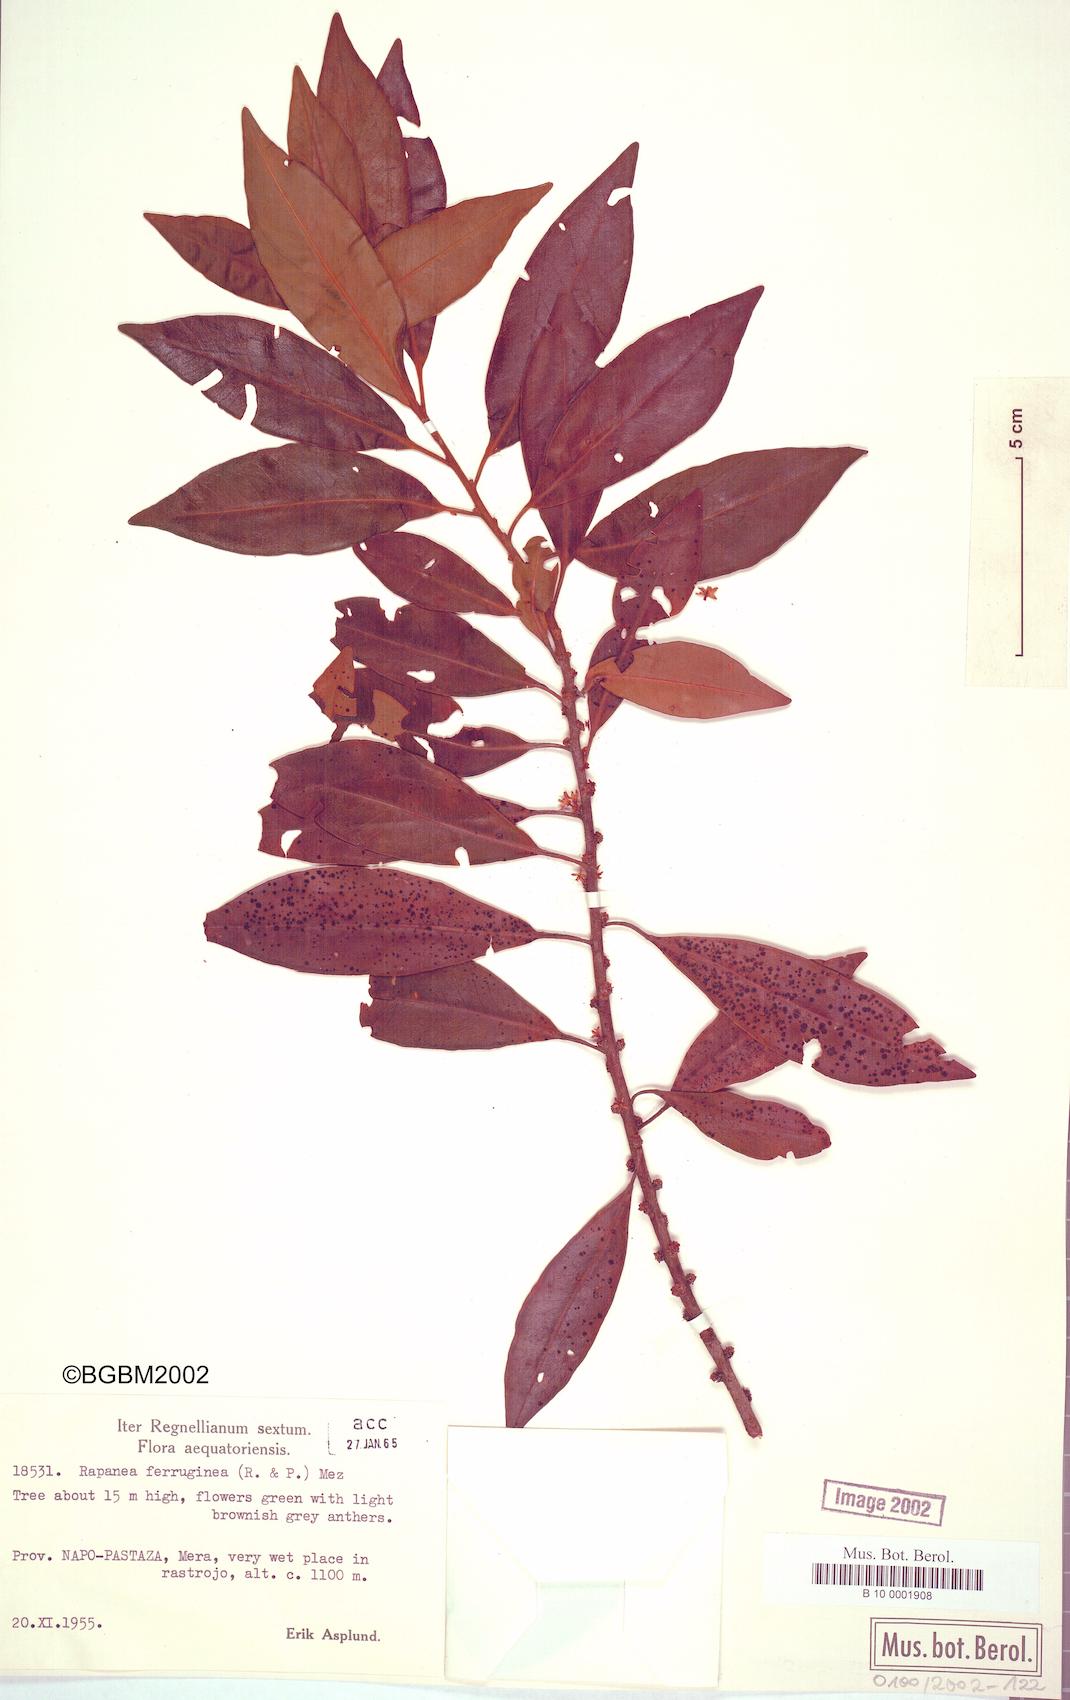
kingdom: Plantae
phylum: Tracheophyta
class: Magnoliopsida
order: Ericales
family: Primulaceae
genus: Myrsine
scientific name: Myrsine coriacea
